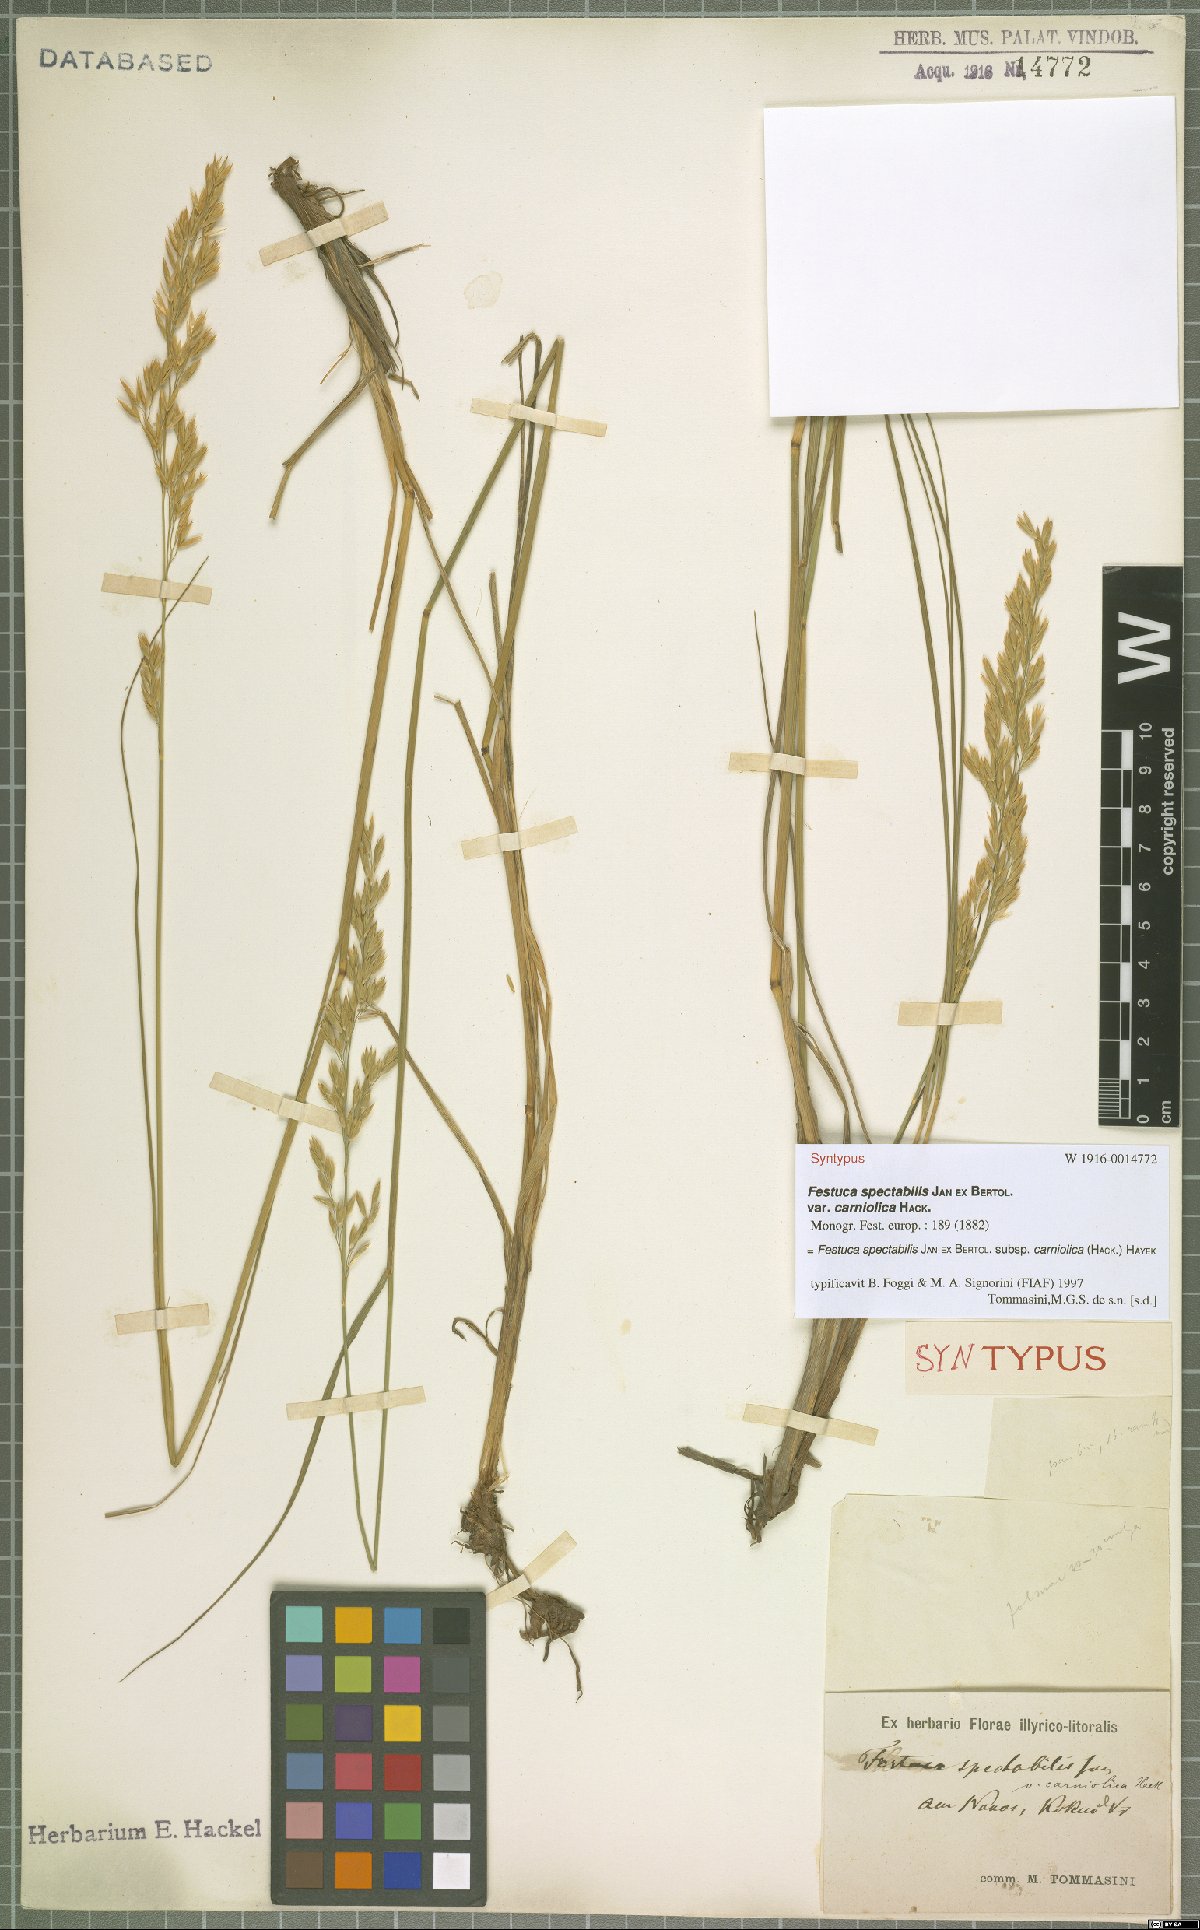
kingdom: Plantae
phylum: Tracheophyta
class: Liliopsida
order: Poales
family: Poaceae
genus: Festuca
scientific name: Festuca spectabilis
